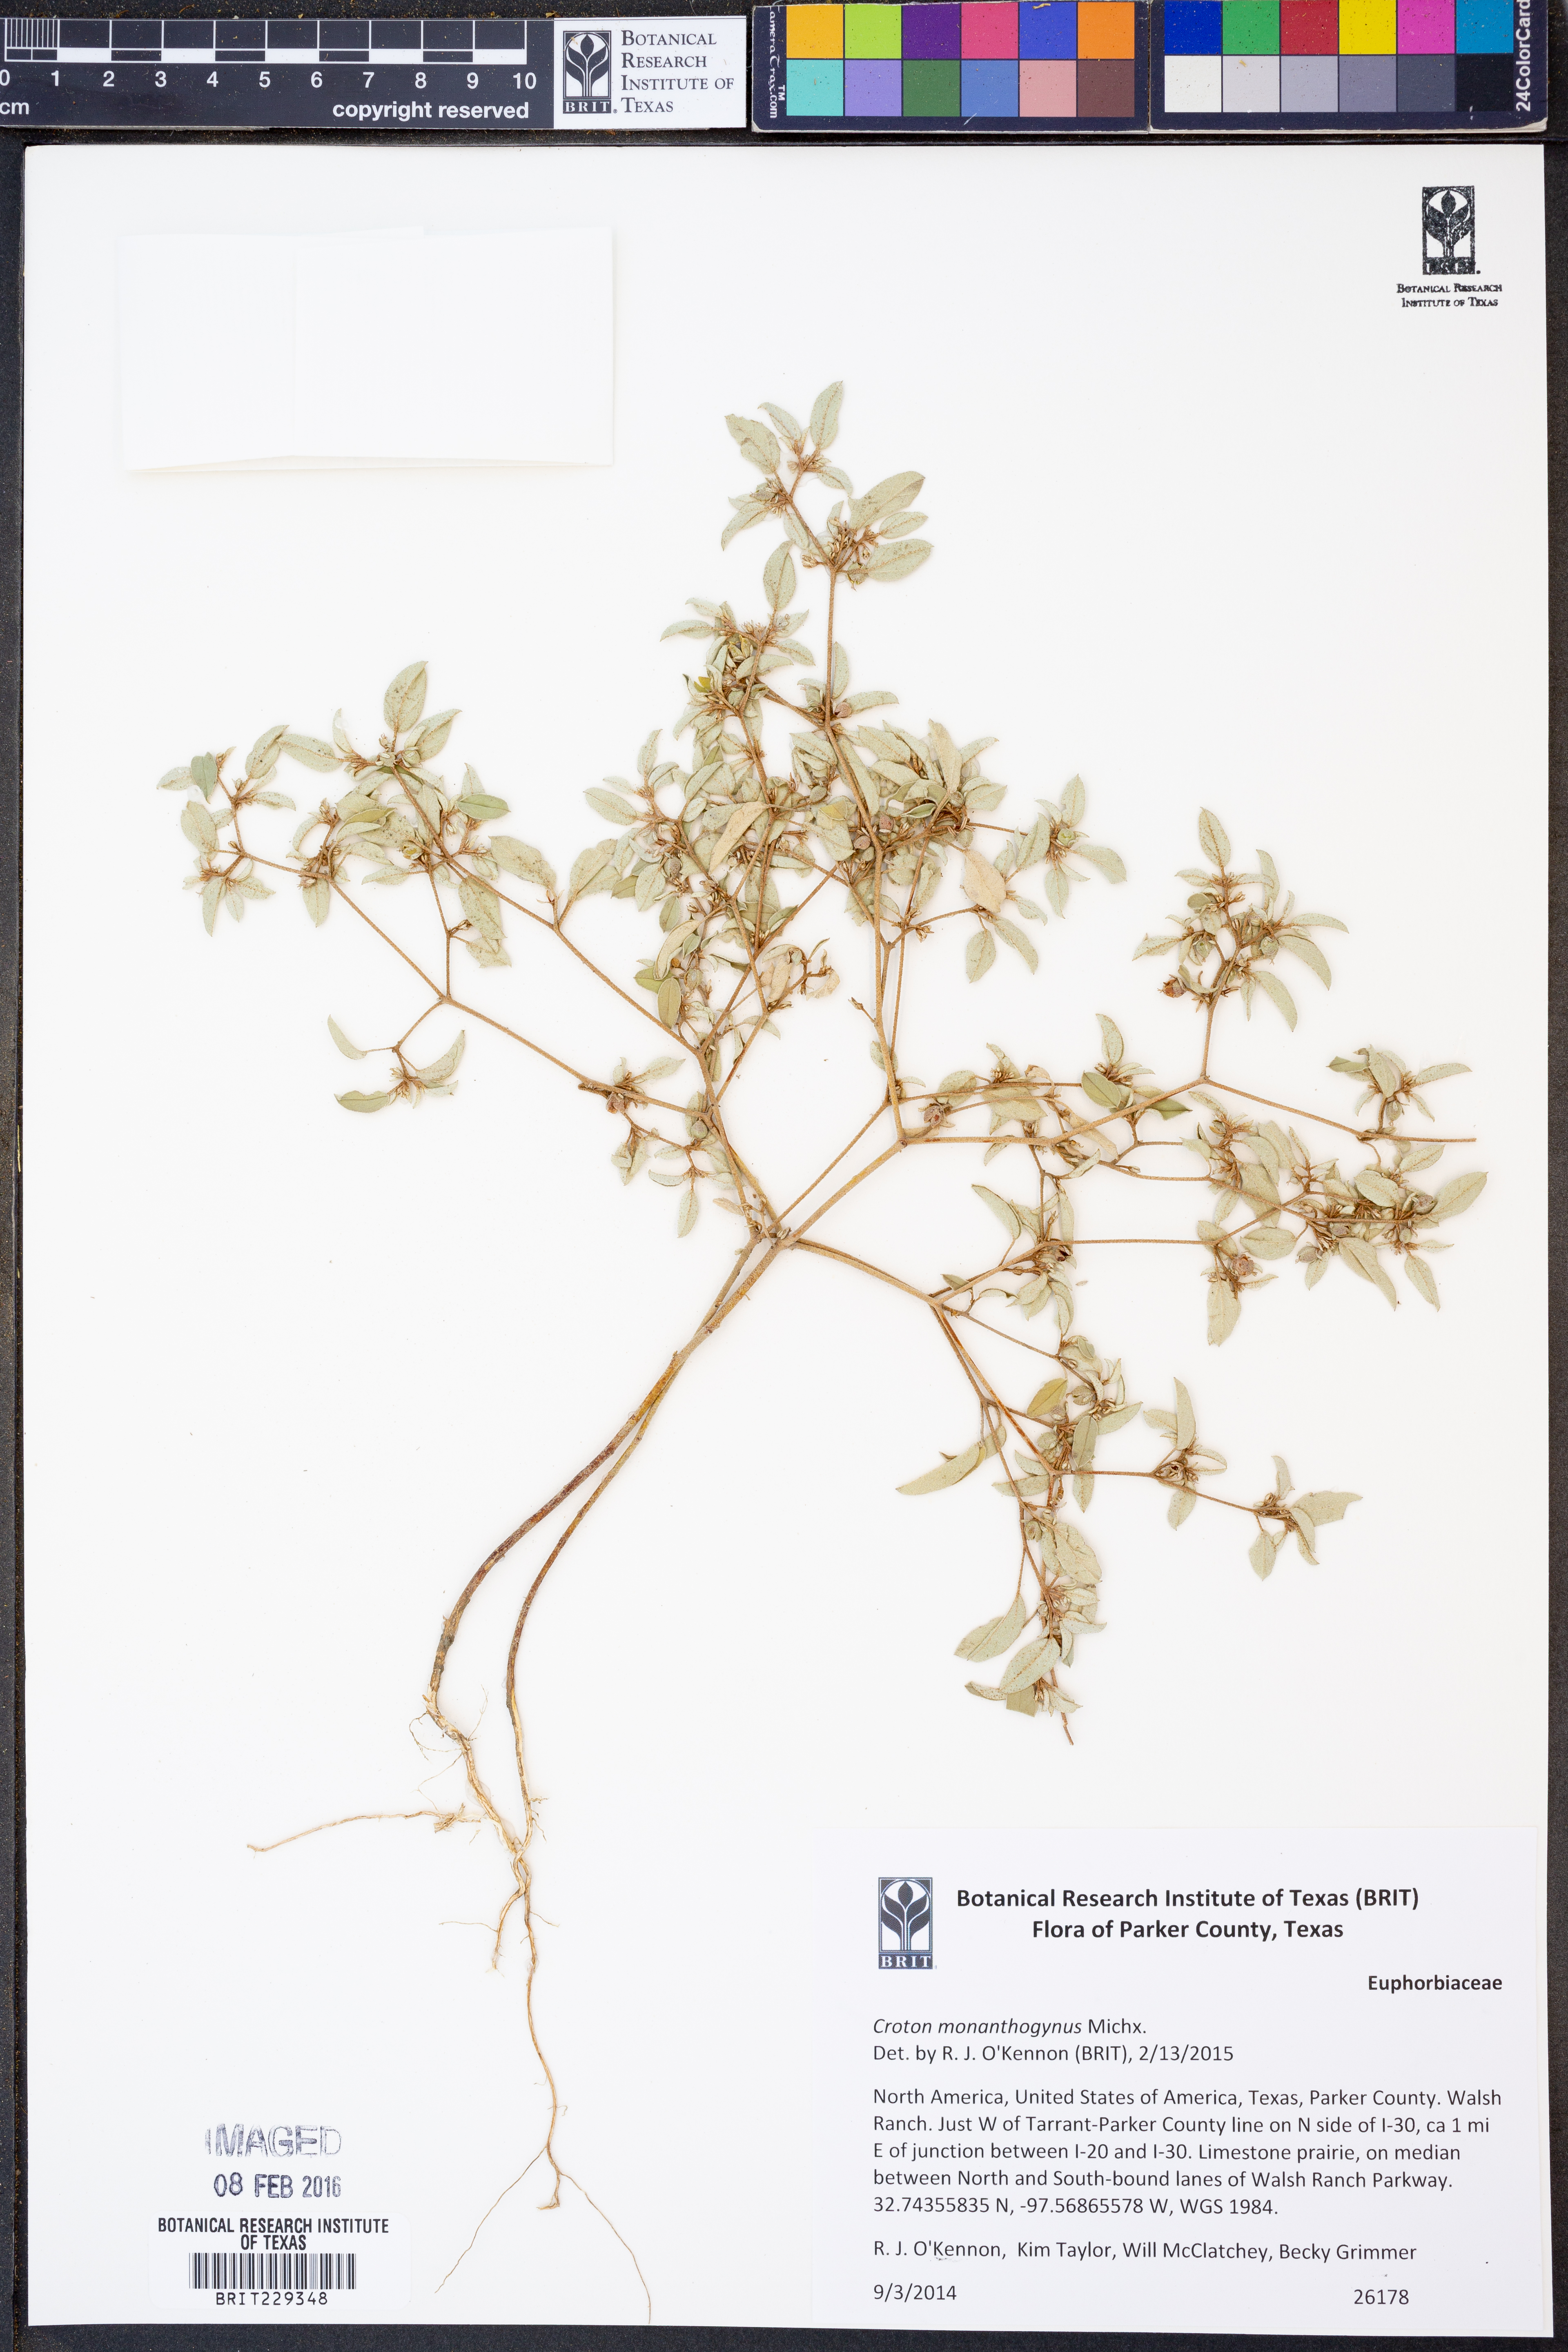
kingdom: Plantae
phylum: Tracheophyta
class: Magnoliopsida
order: Malpighiales
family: Euphorbiaceae
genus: Croton
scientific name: Croton monanthogynus
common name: One-seed croton
